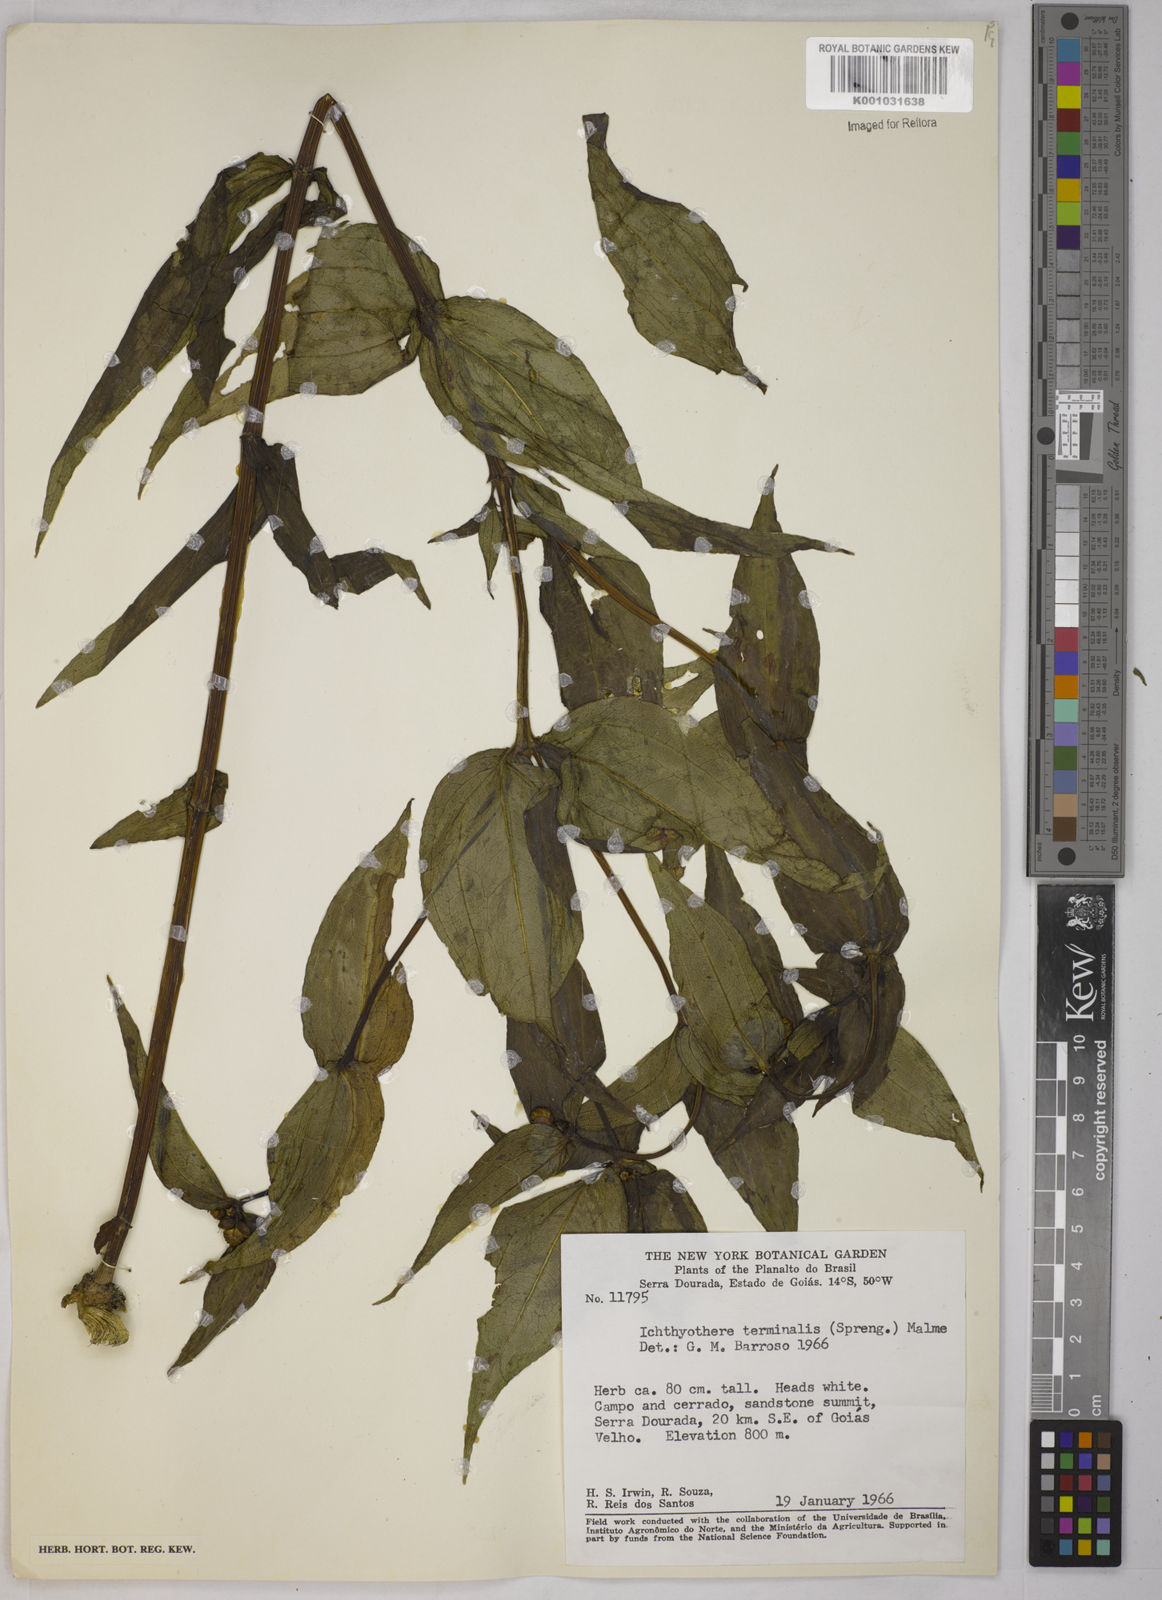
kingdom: Plantae
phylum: Tracheophyta
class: Magnoliopsida
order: Asterales
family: Asteraceae
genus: Ichthyothere
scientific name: Ichthyothere terminalis
